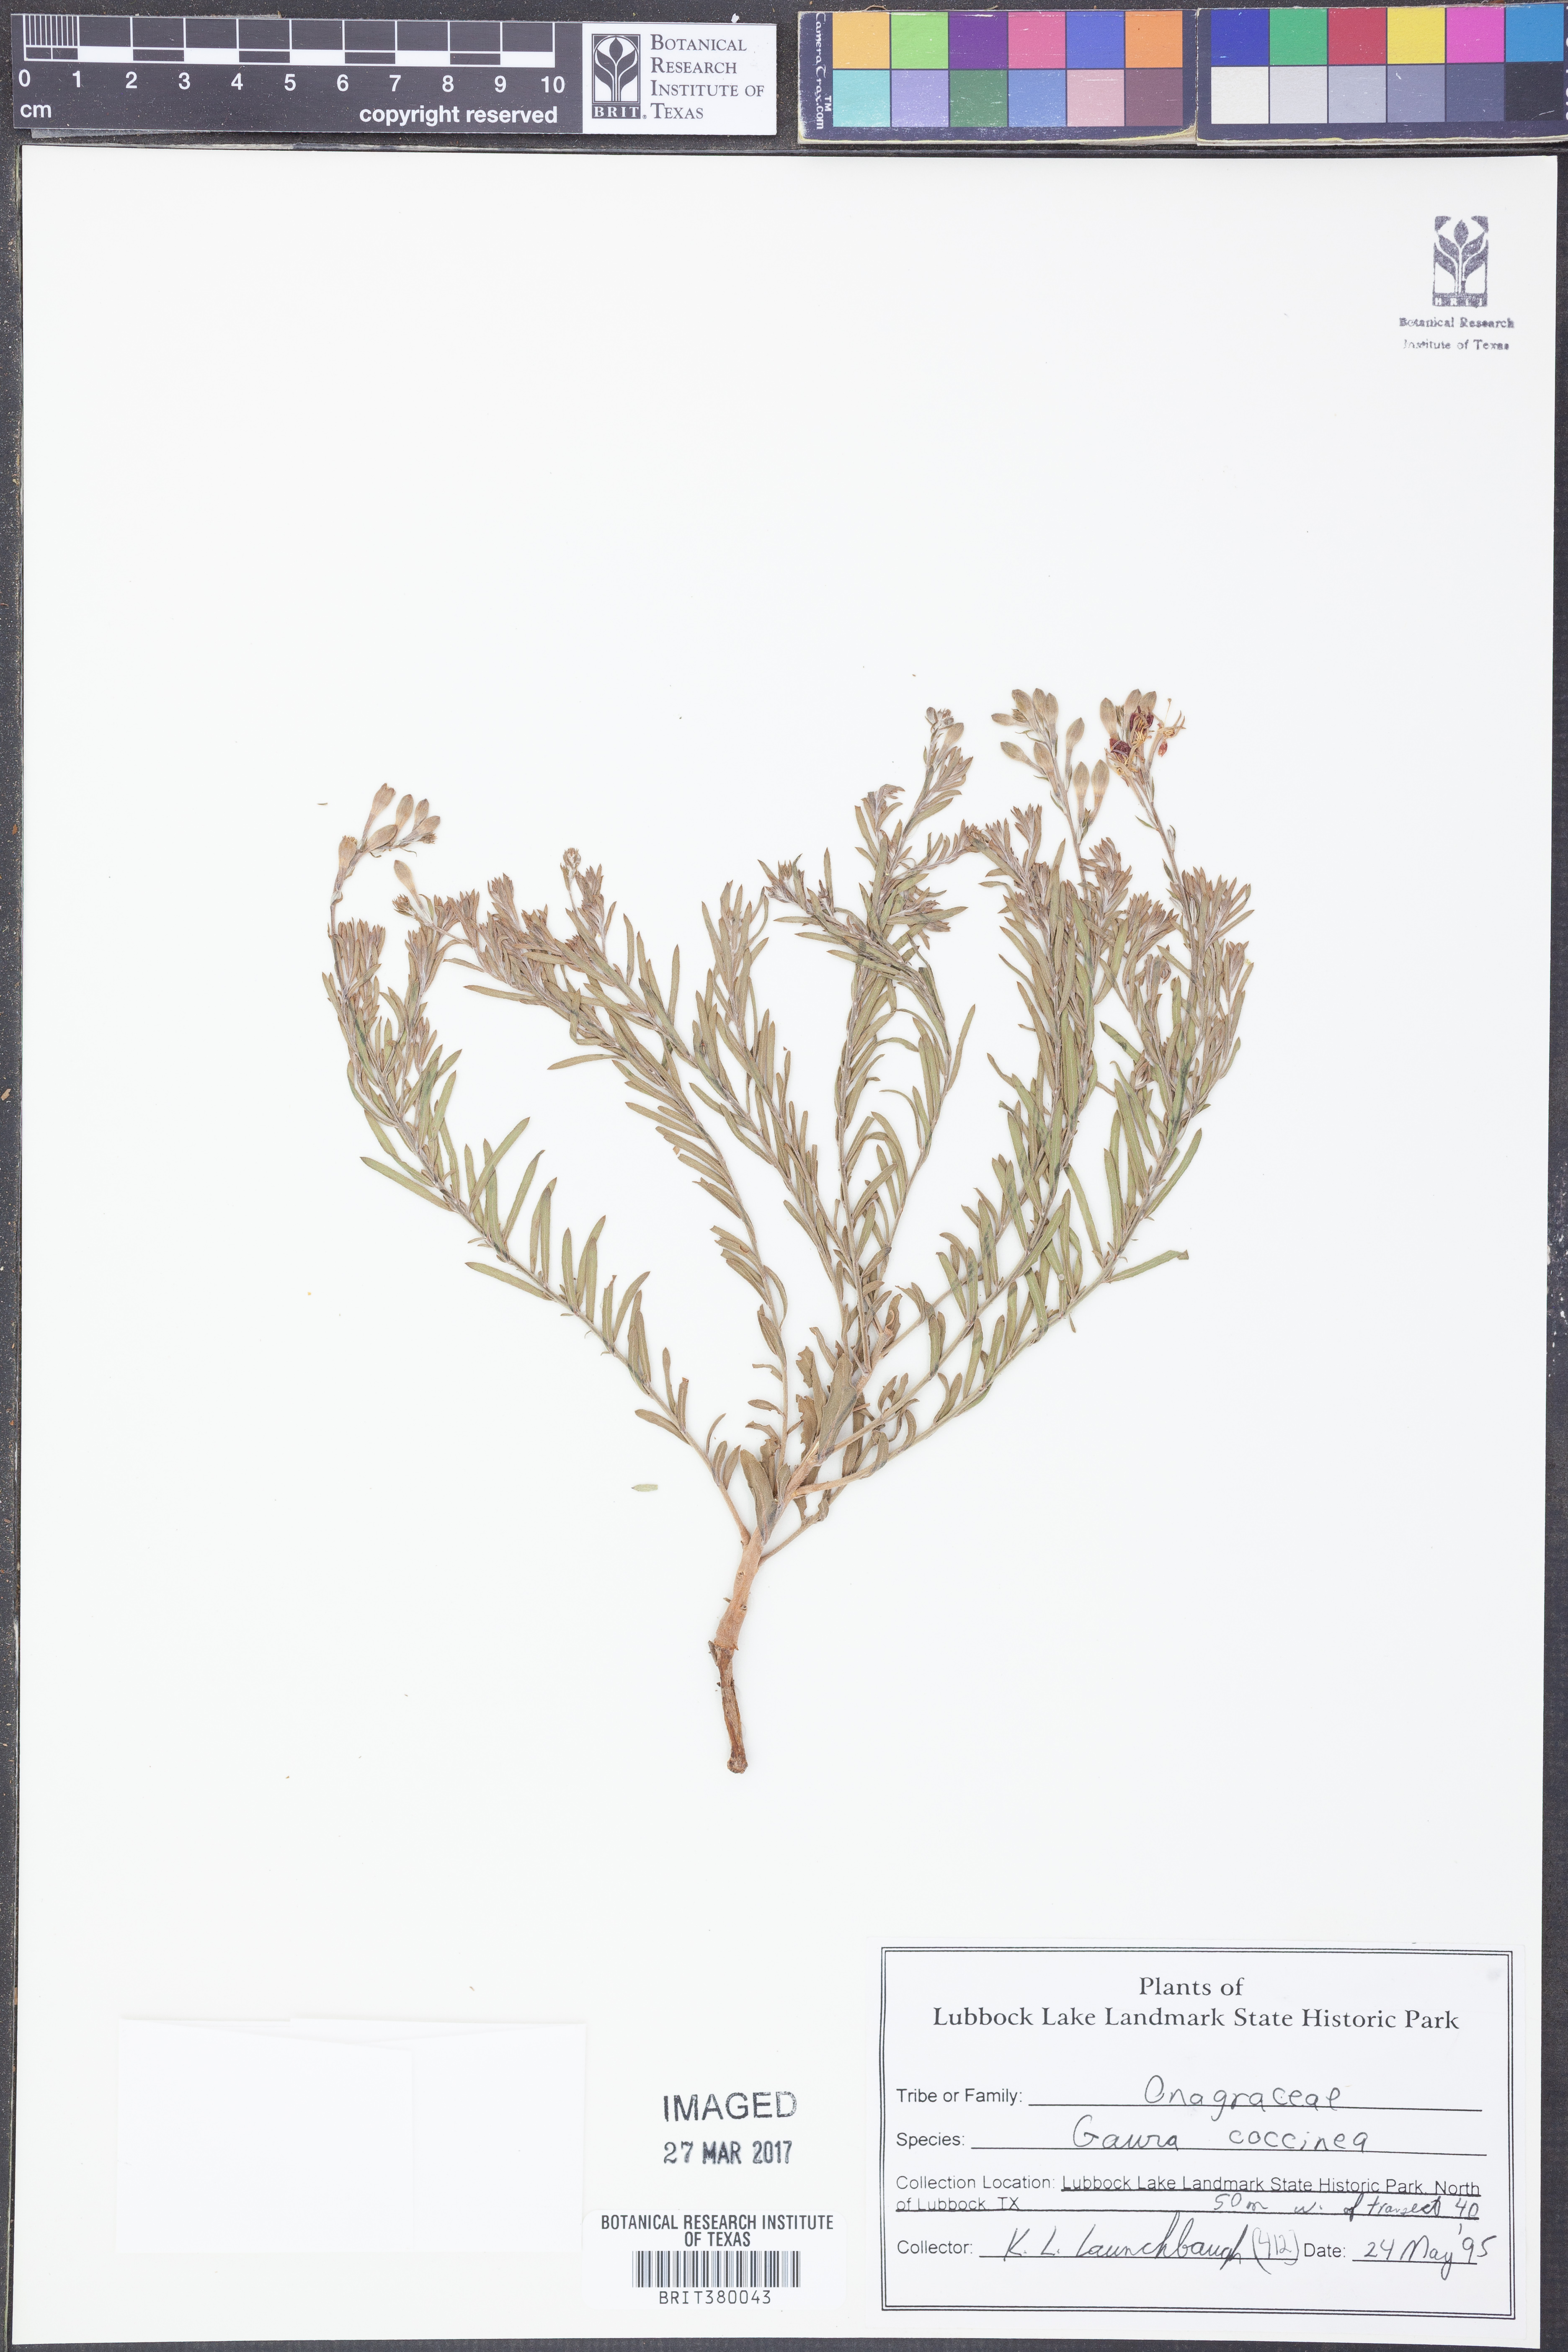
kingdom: Plantae
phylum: Tracheophyta
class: Magnoliopsida
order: Myrtales
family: Onagraceae
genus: Oenothera
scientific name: Oenothera suffrutescens
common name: Scarlet beeblossom
